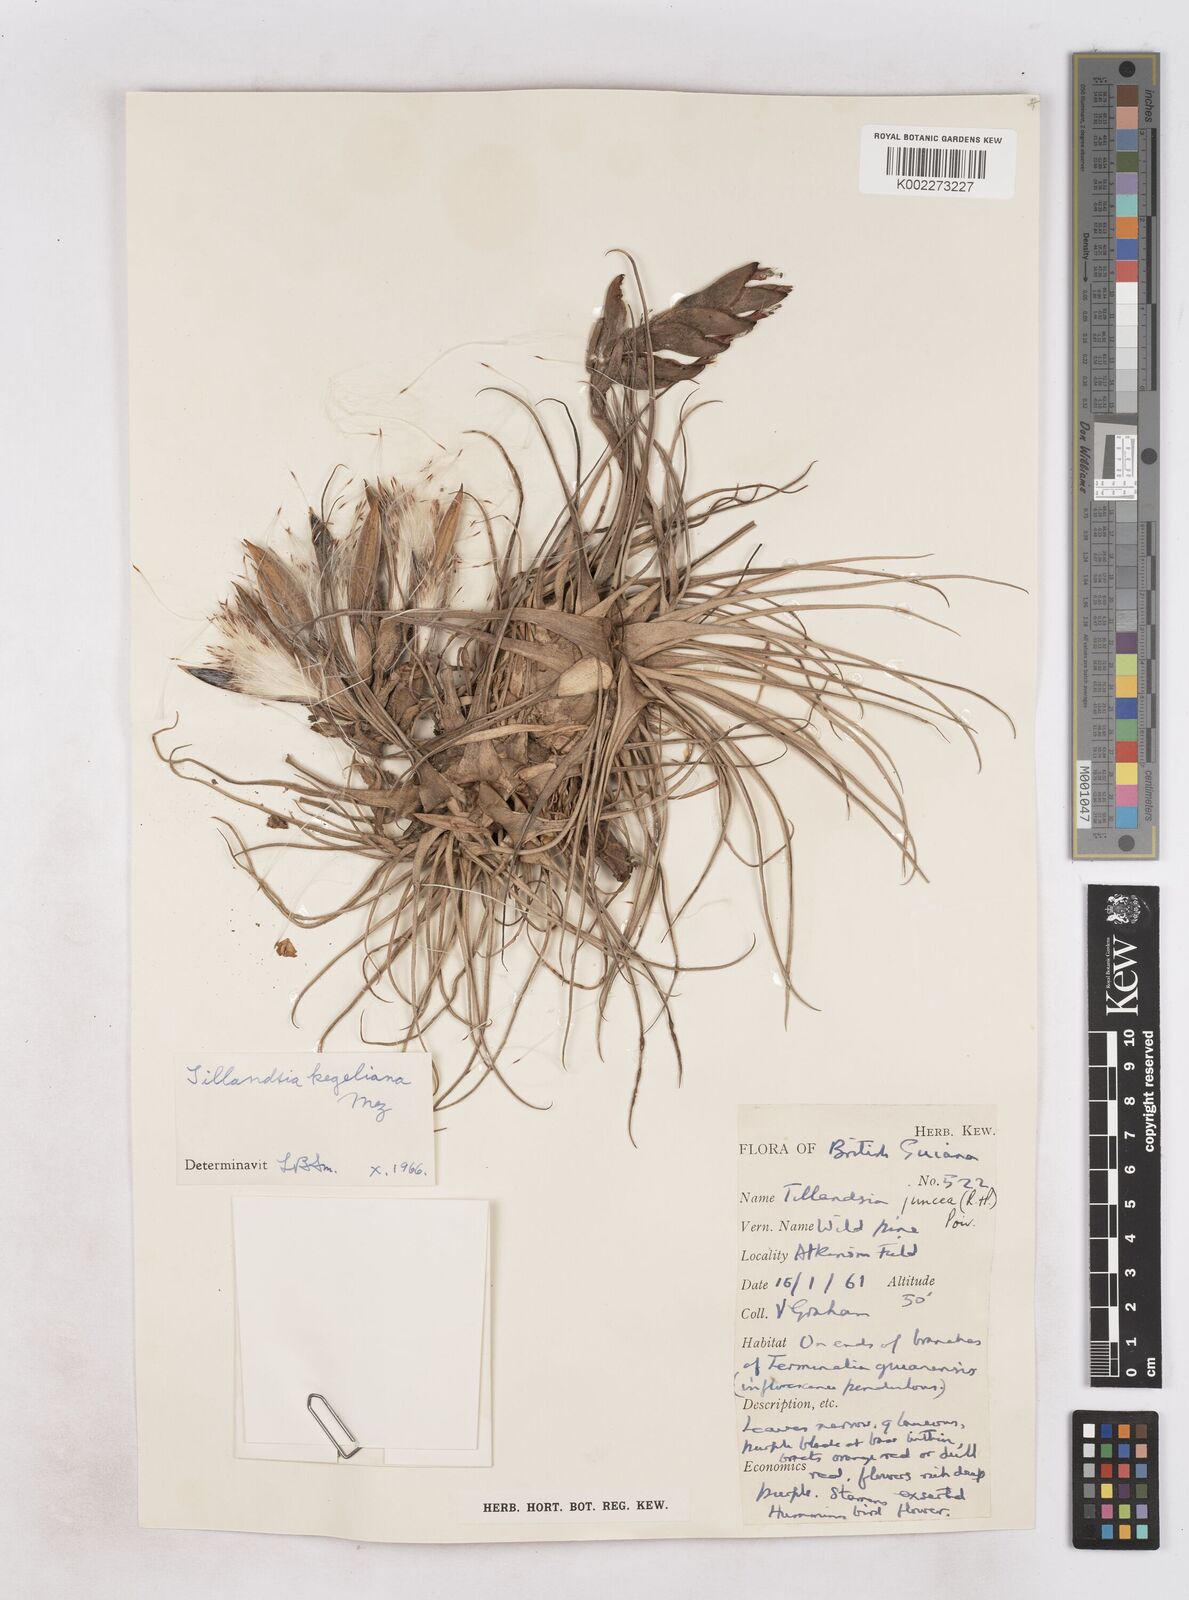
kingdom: Plantae
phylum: Tracheophyta
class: Liliopsida
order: Poales
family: Bromeliaceae
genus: Tillandsia
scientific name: Tillandsia kegeliana
